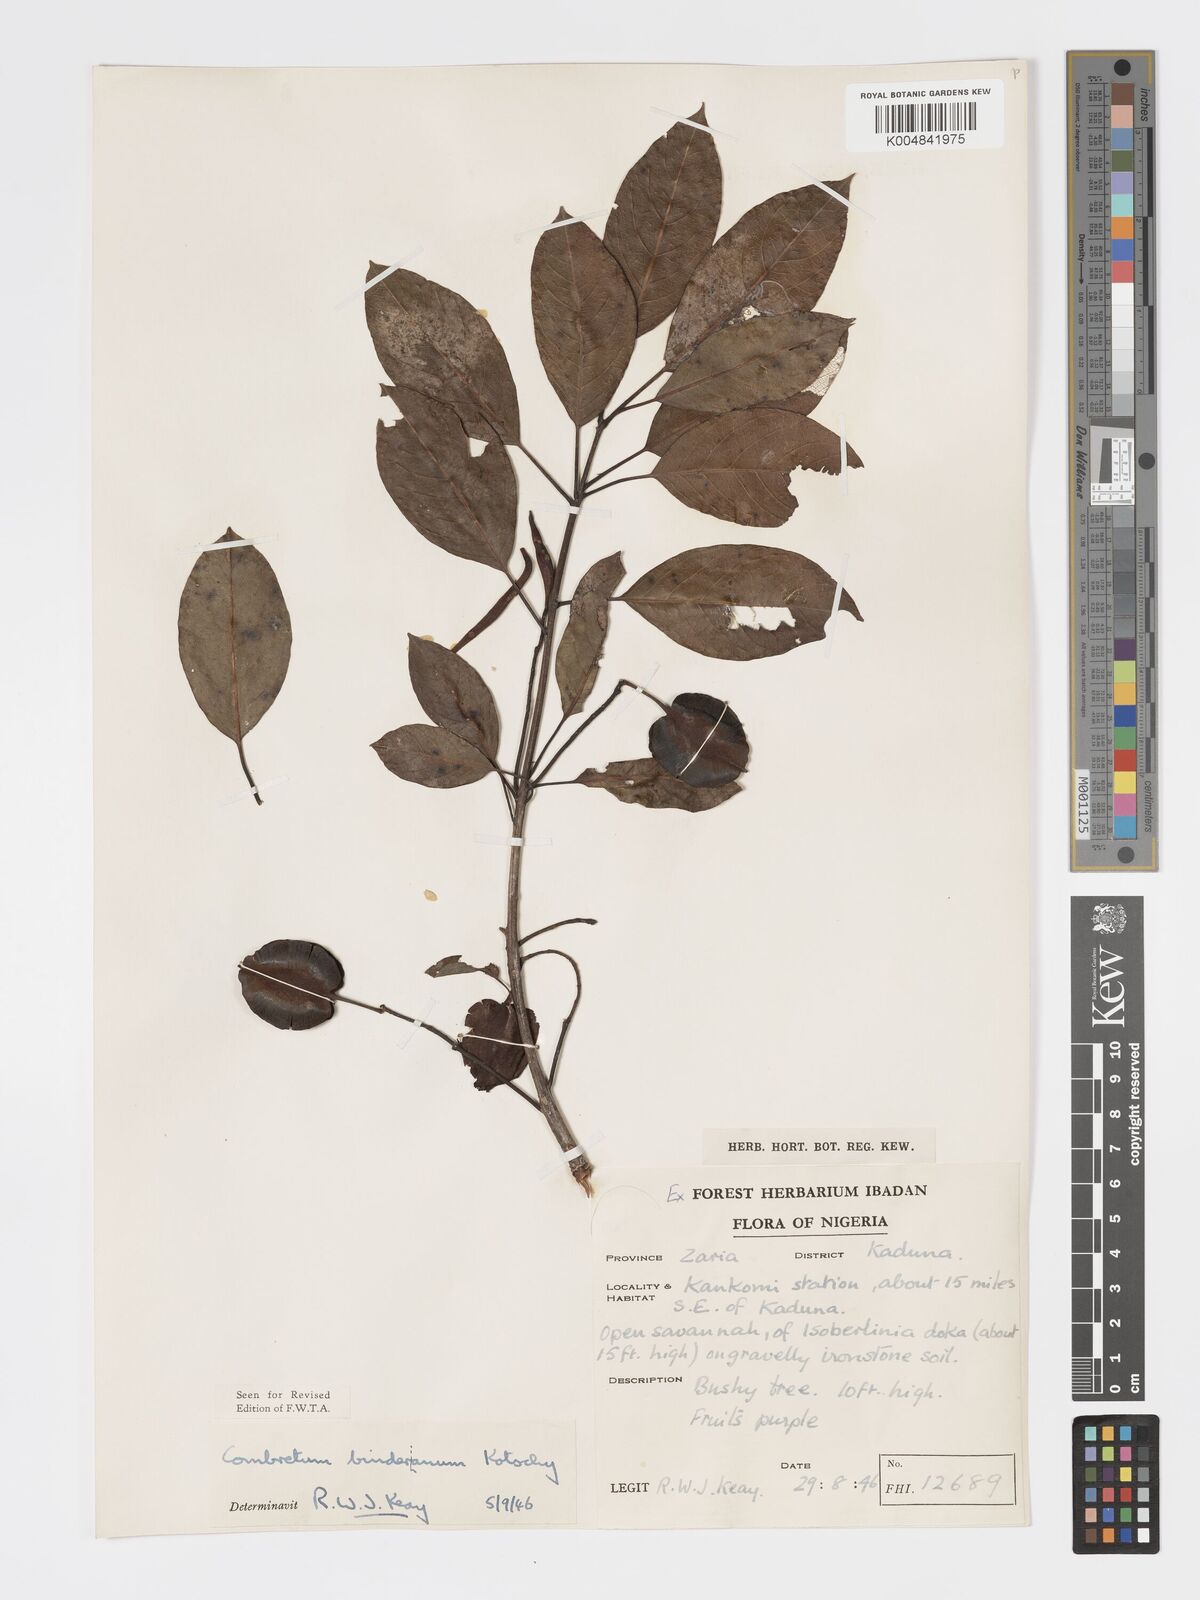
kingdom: Plantae
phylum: Tracheophyta
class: Magnoliopsida
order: Myrtales
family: Combretaceae
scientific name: Combretaceae
